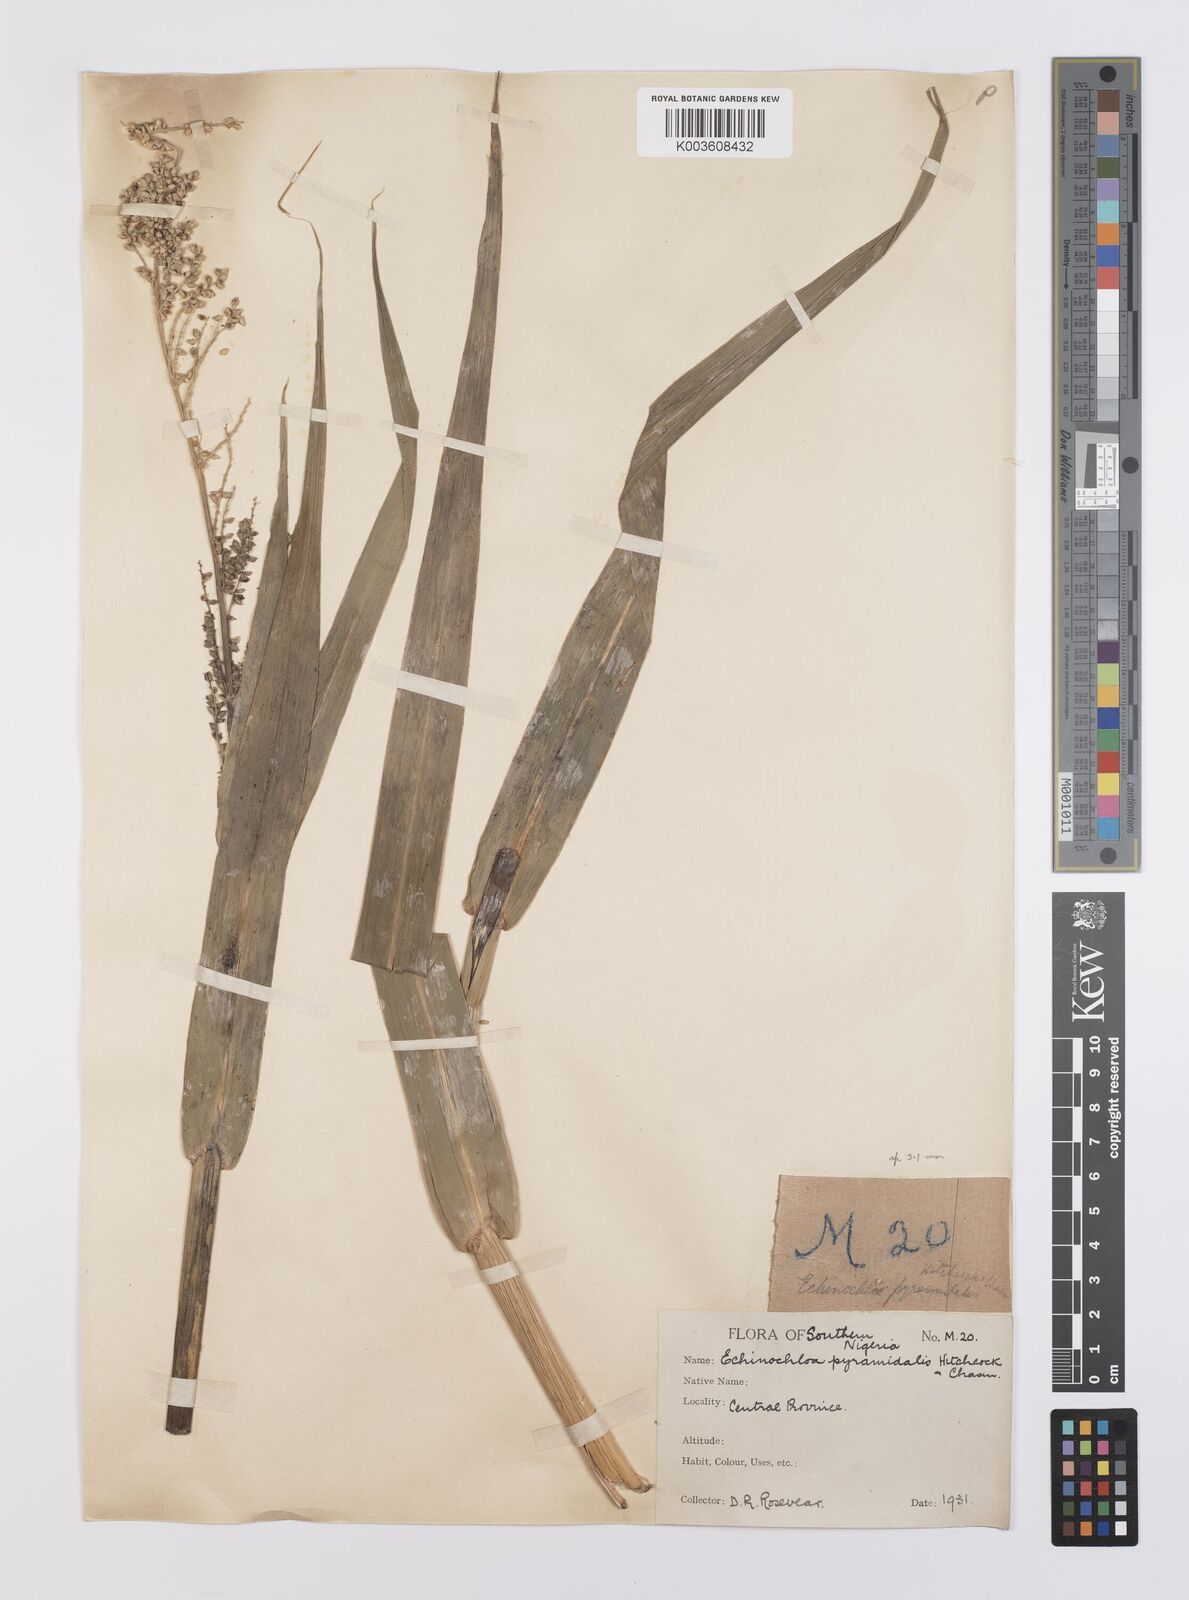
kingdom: Plantae
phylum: Tracheophyta
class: Liliopsida
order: Poales
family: Poaceae
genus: Echinochloa
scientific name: Echinochloa pyramidalis
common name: Antelope grass
